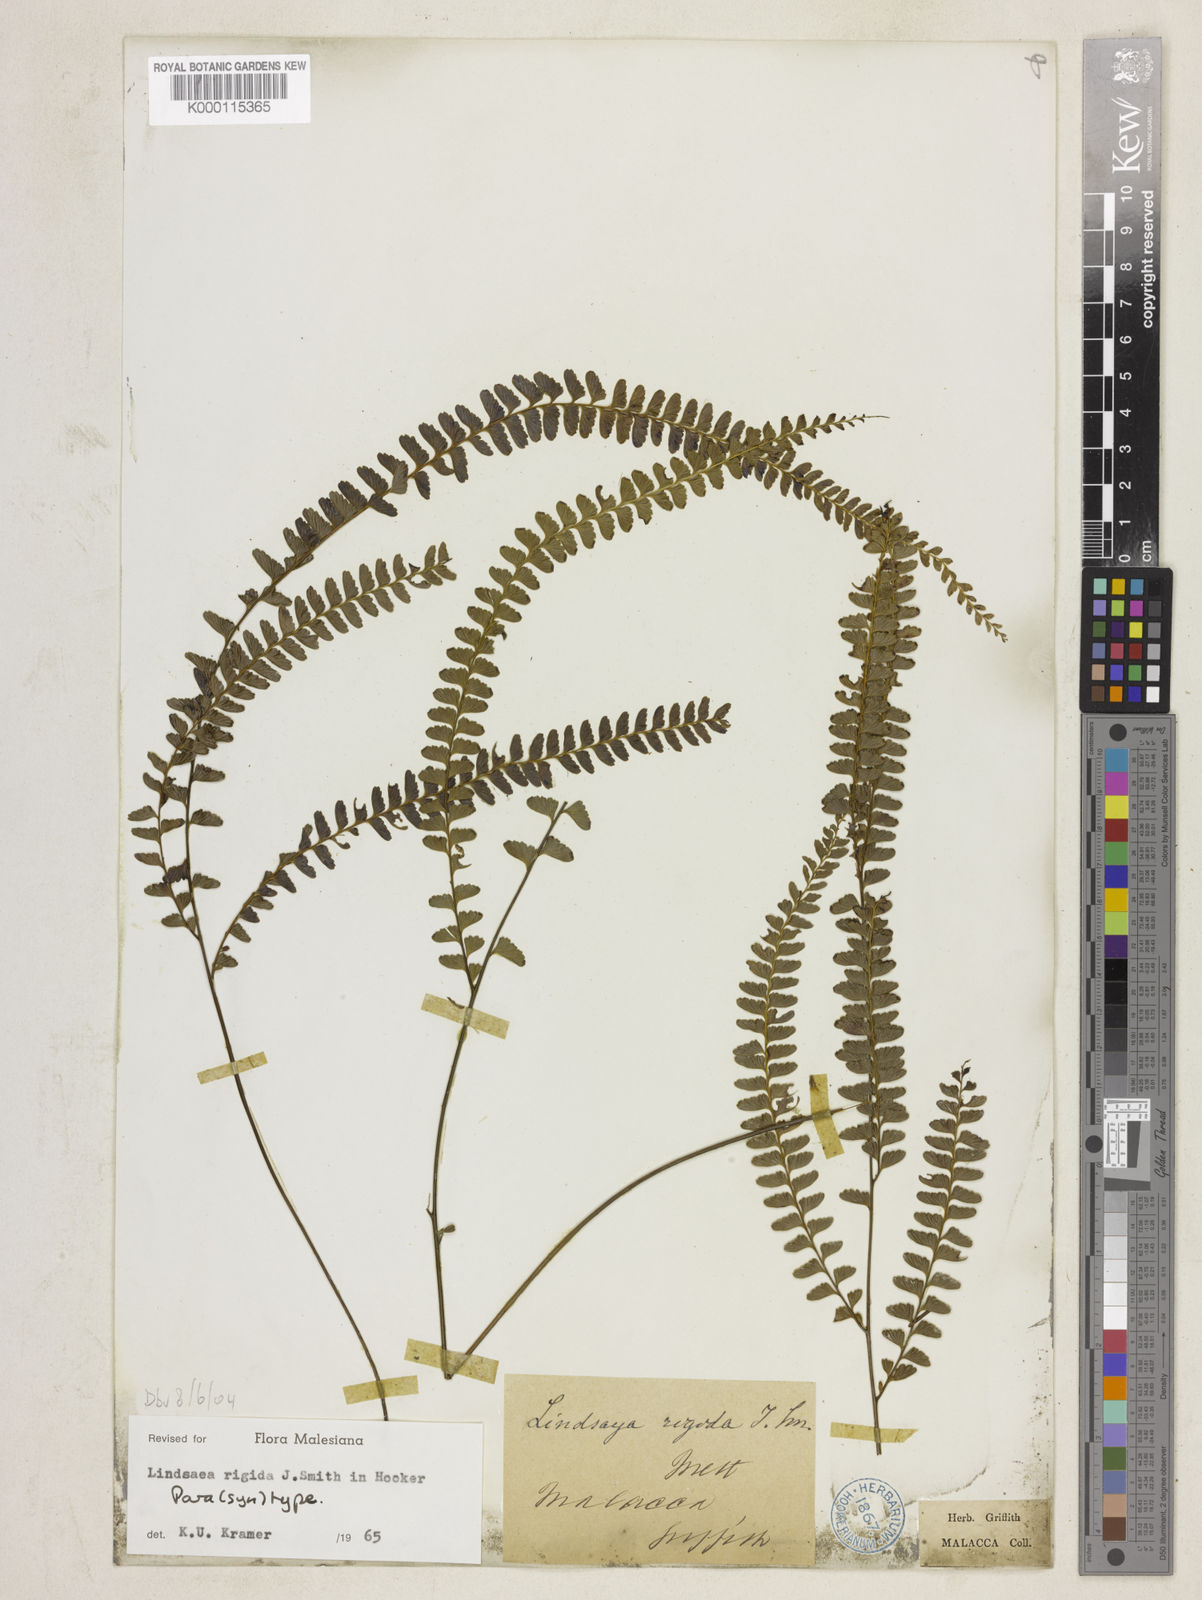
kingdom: Plantae
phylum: Tracheophyta
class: Polypodiopsida
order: Polypodiales
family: Lindsaeaceae
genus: Lindsaea
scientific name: Lindsaea rigida
